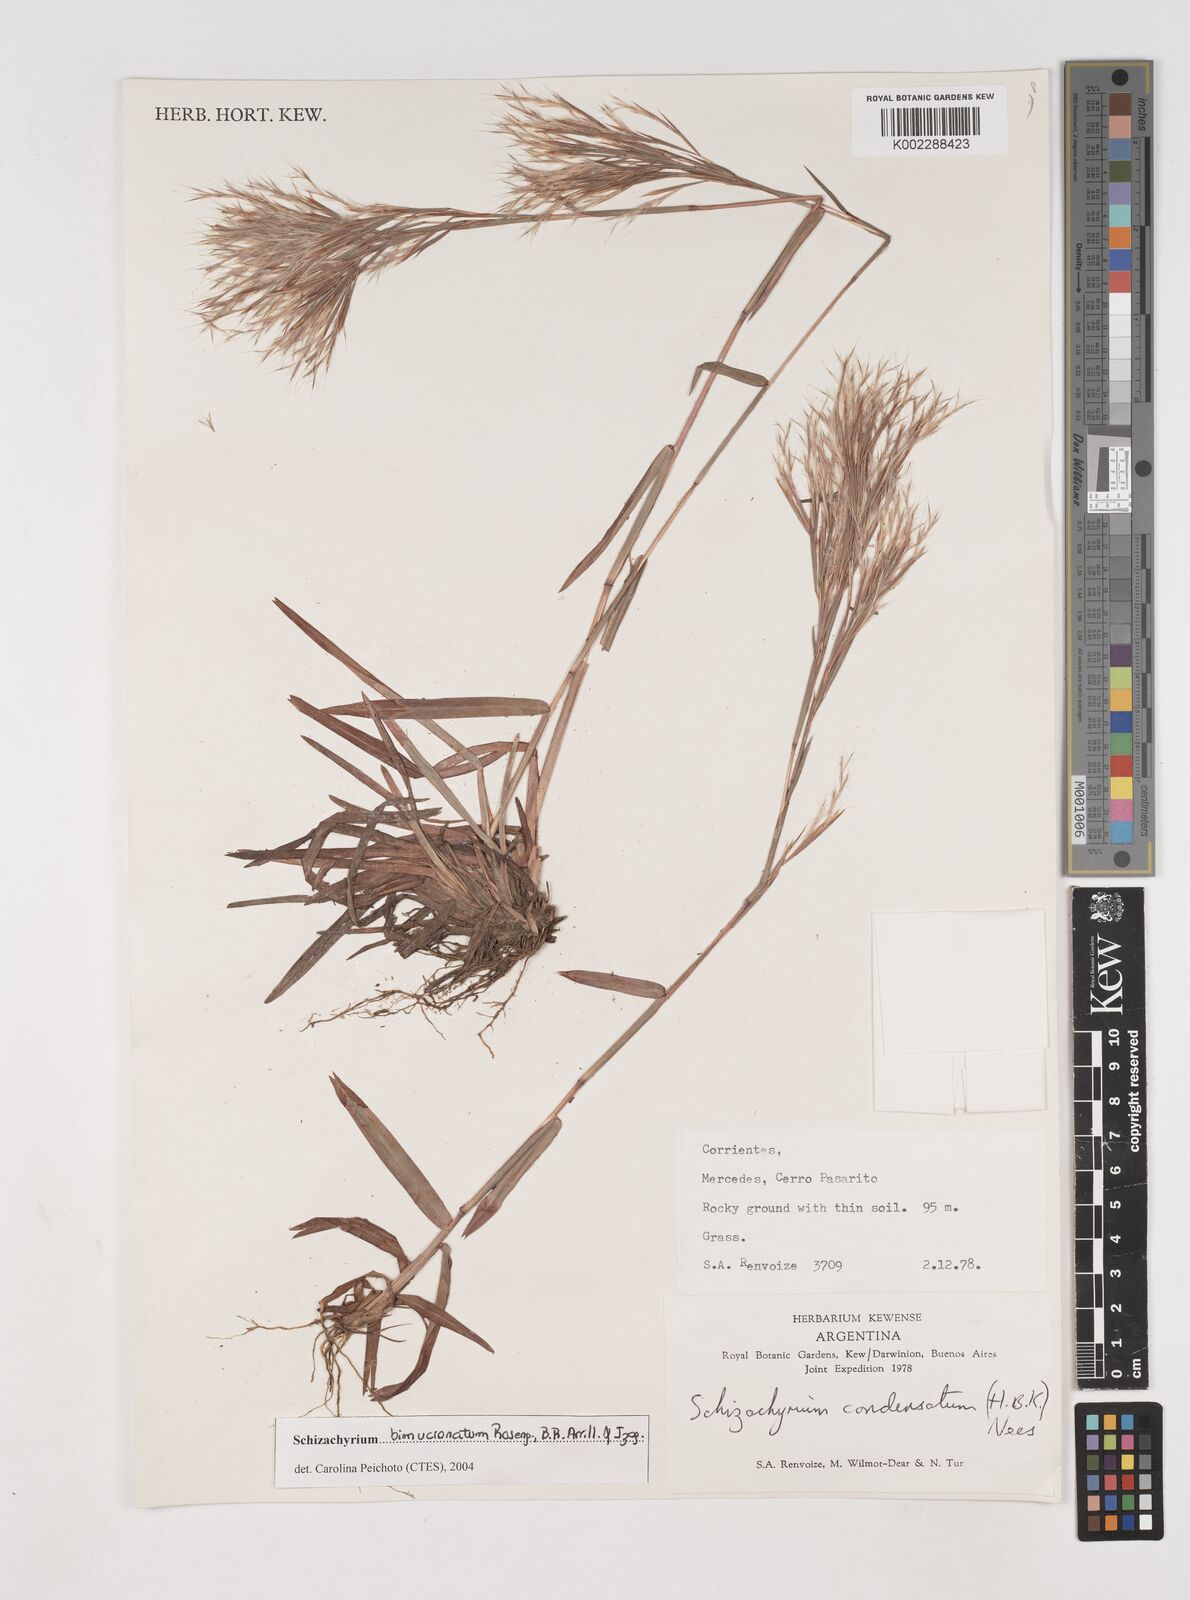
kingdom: Plantae
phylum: Tracheophyta
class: Liliopsida
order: Poales
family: Poaceae
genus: Schizachyrium
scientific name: Schizachyrium condensatum
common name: Bush beardgrass
